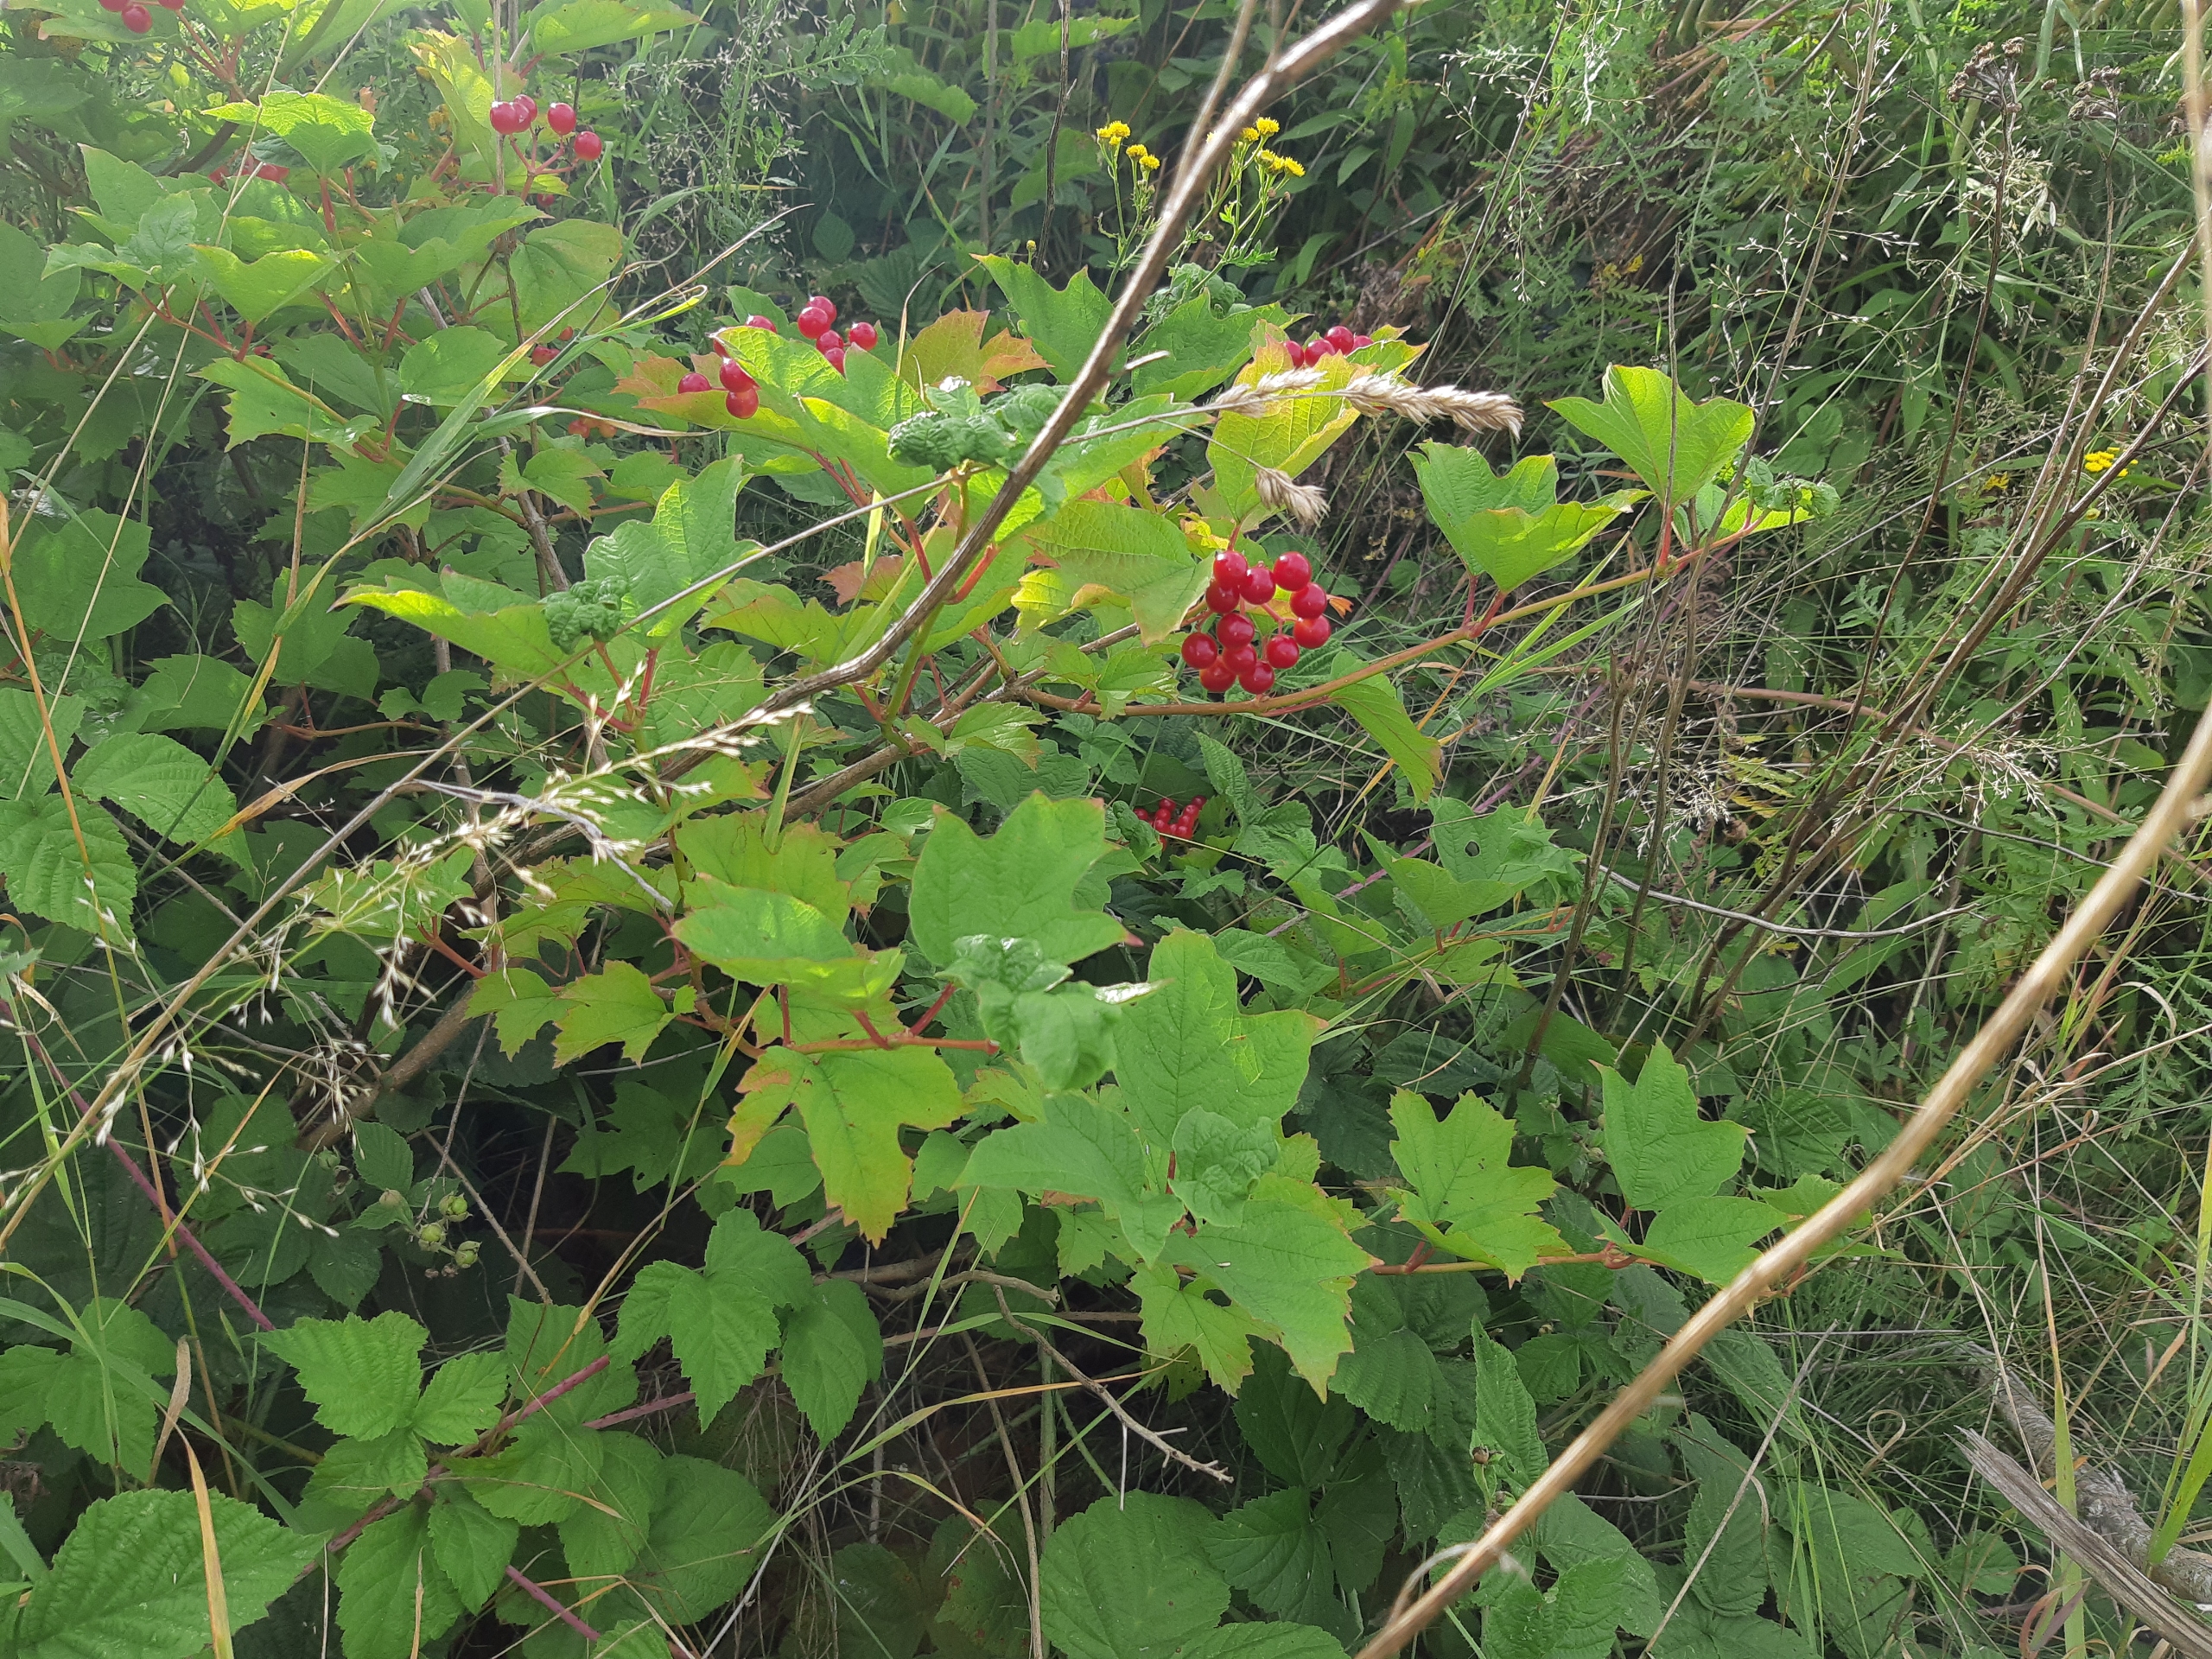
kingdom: Plantae
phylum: Tracheophyta
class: Magnoliopsida
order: Dipsacales
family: Viburnaceae
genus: Viburnum
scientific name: Viburnum opulus
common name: Kvalkved
